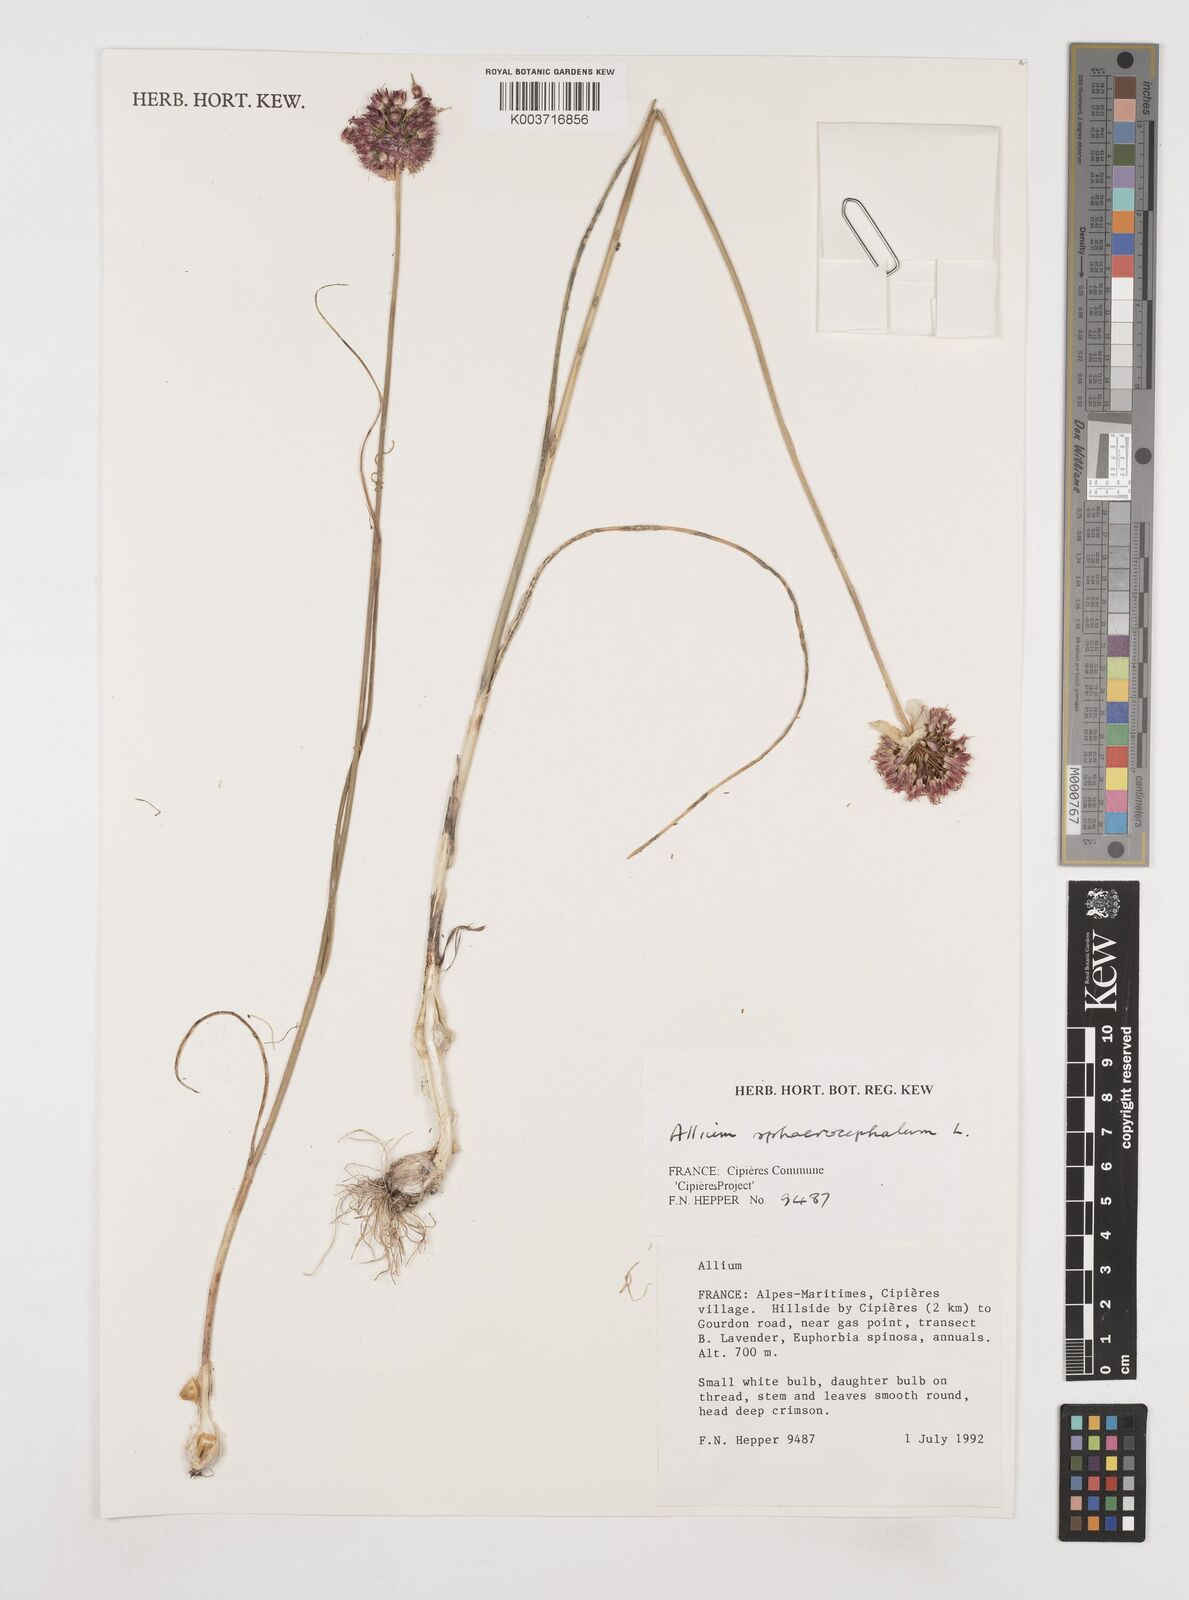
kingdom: Plantae
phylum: Tracheophyta
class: Liliopsida
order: Asparagales
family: Amaryllidaceae
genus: Allium
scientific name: Allium sphaerocephalon
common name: Round-headed leek
